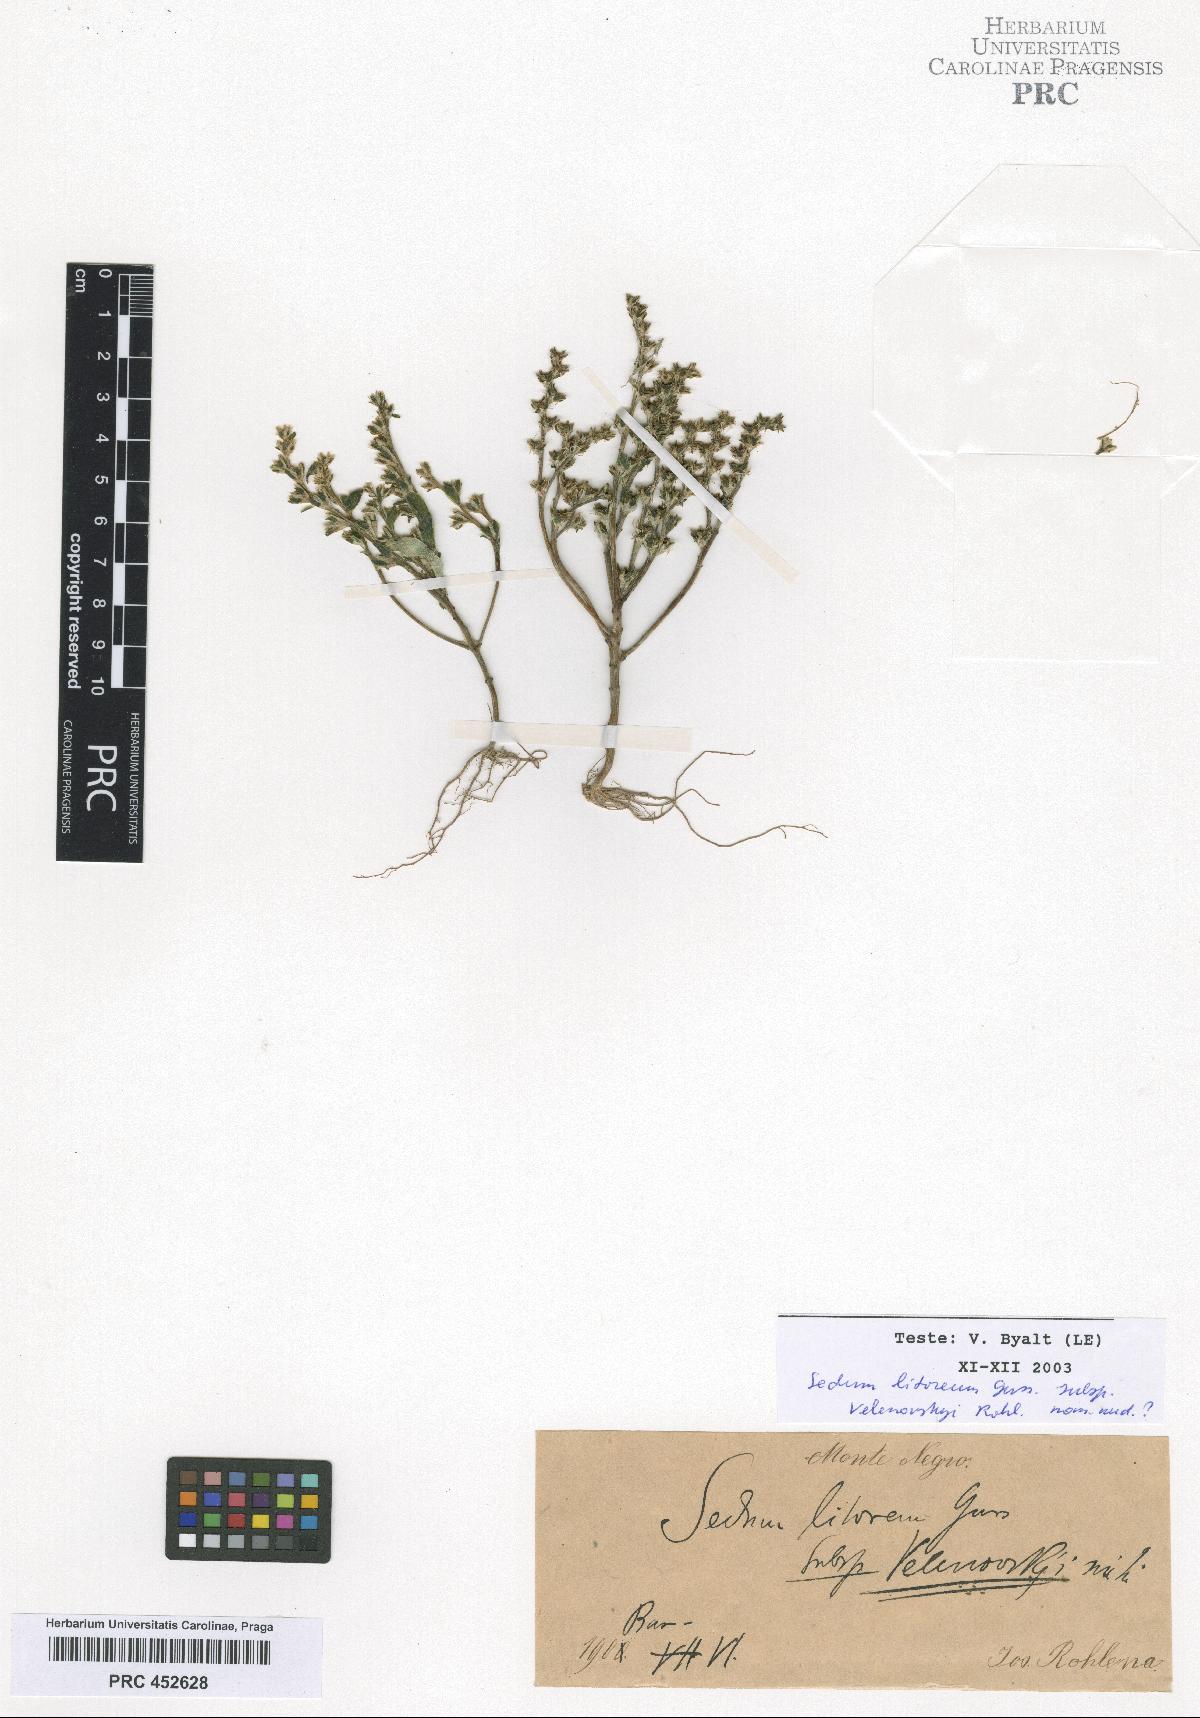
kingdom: Plantae
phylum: Tracheophyta
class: Magnoliopsida
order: Saxifragales
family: Crassulaceae
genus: Sedum
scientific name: Sedum litoreum
